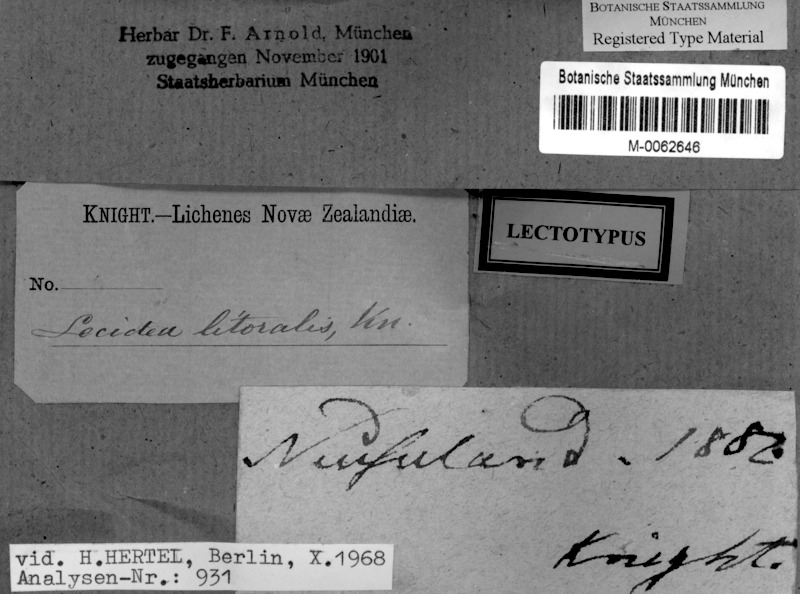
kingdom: Fungi
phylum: Ascomycota
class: Lecanoromycetes
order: Lecideales
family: Lecideaceae
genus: Poeltiaria
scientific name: Poeltiaria turgescens
